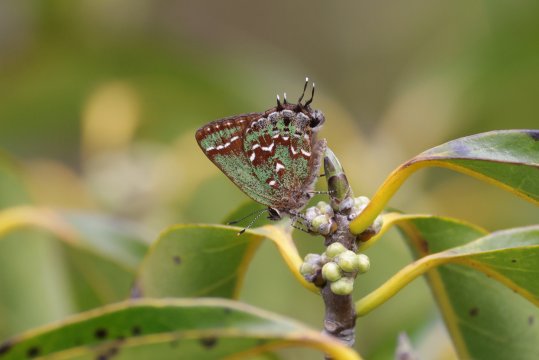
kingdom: Animalia
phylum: Arthropoda
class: Insecta
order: Lepidoptera
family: Lycaenidae
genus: Mitoura
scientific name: Mitoura hesseli
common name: Hessel's Hairstreak
